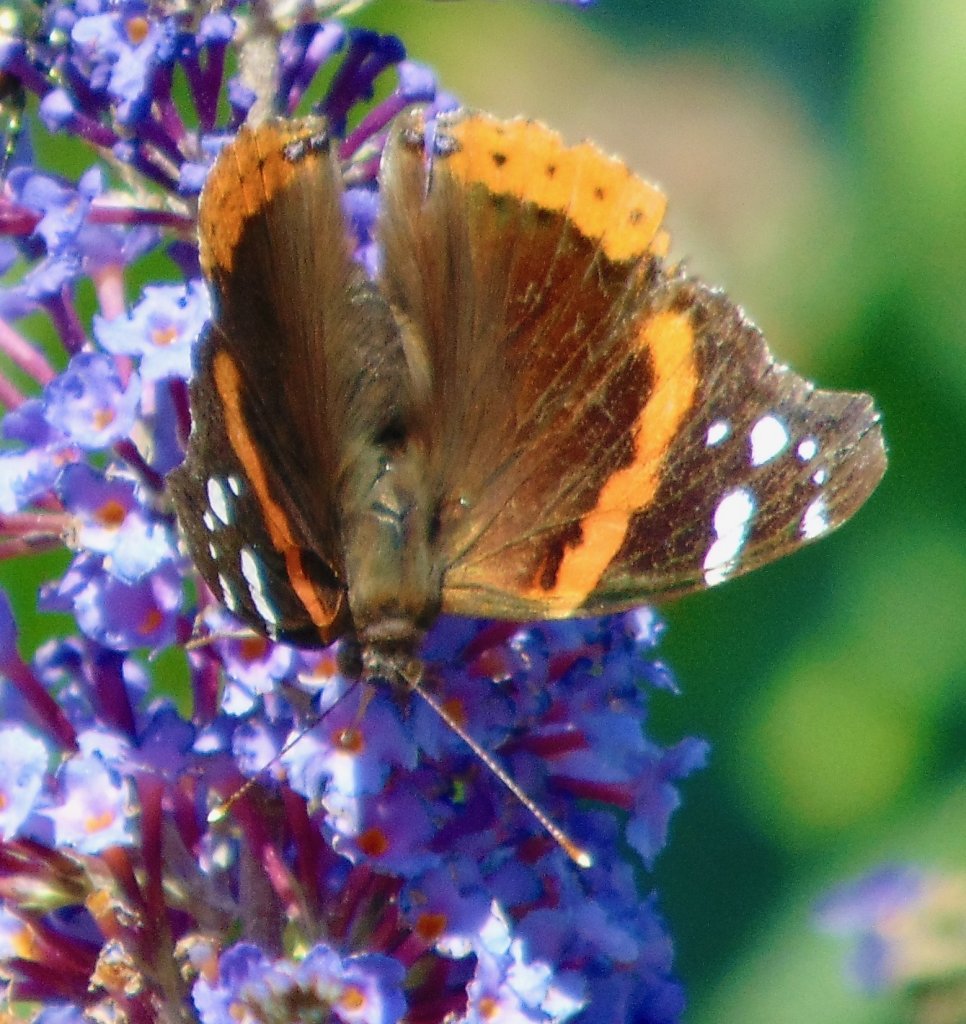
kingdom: Animalia
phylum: Arthropoda
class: Insecta
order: Lepidoptera
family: Nymphalidae
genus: Vanessa
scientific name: Vanessa atalanta
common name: Red Admiral
